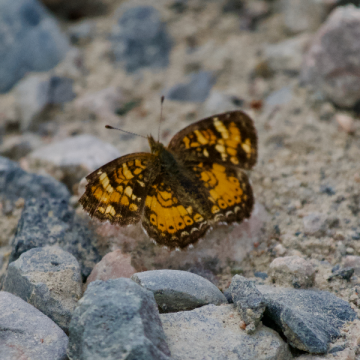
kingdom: Animalia
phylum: Arthropoda
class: Insecta
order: Lepidoptera
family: Nymphalidae
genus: Phyciodes
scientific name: Phyciodes tharos
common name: Northern Crescent
